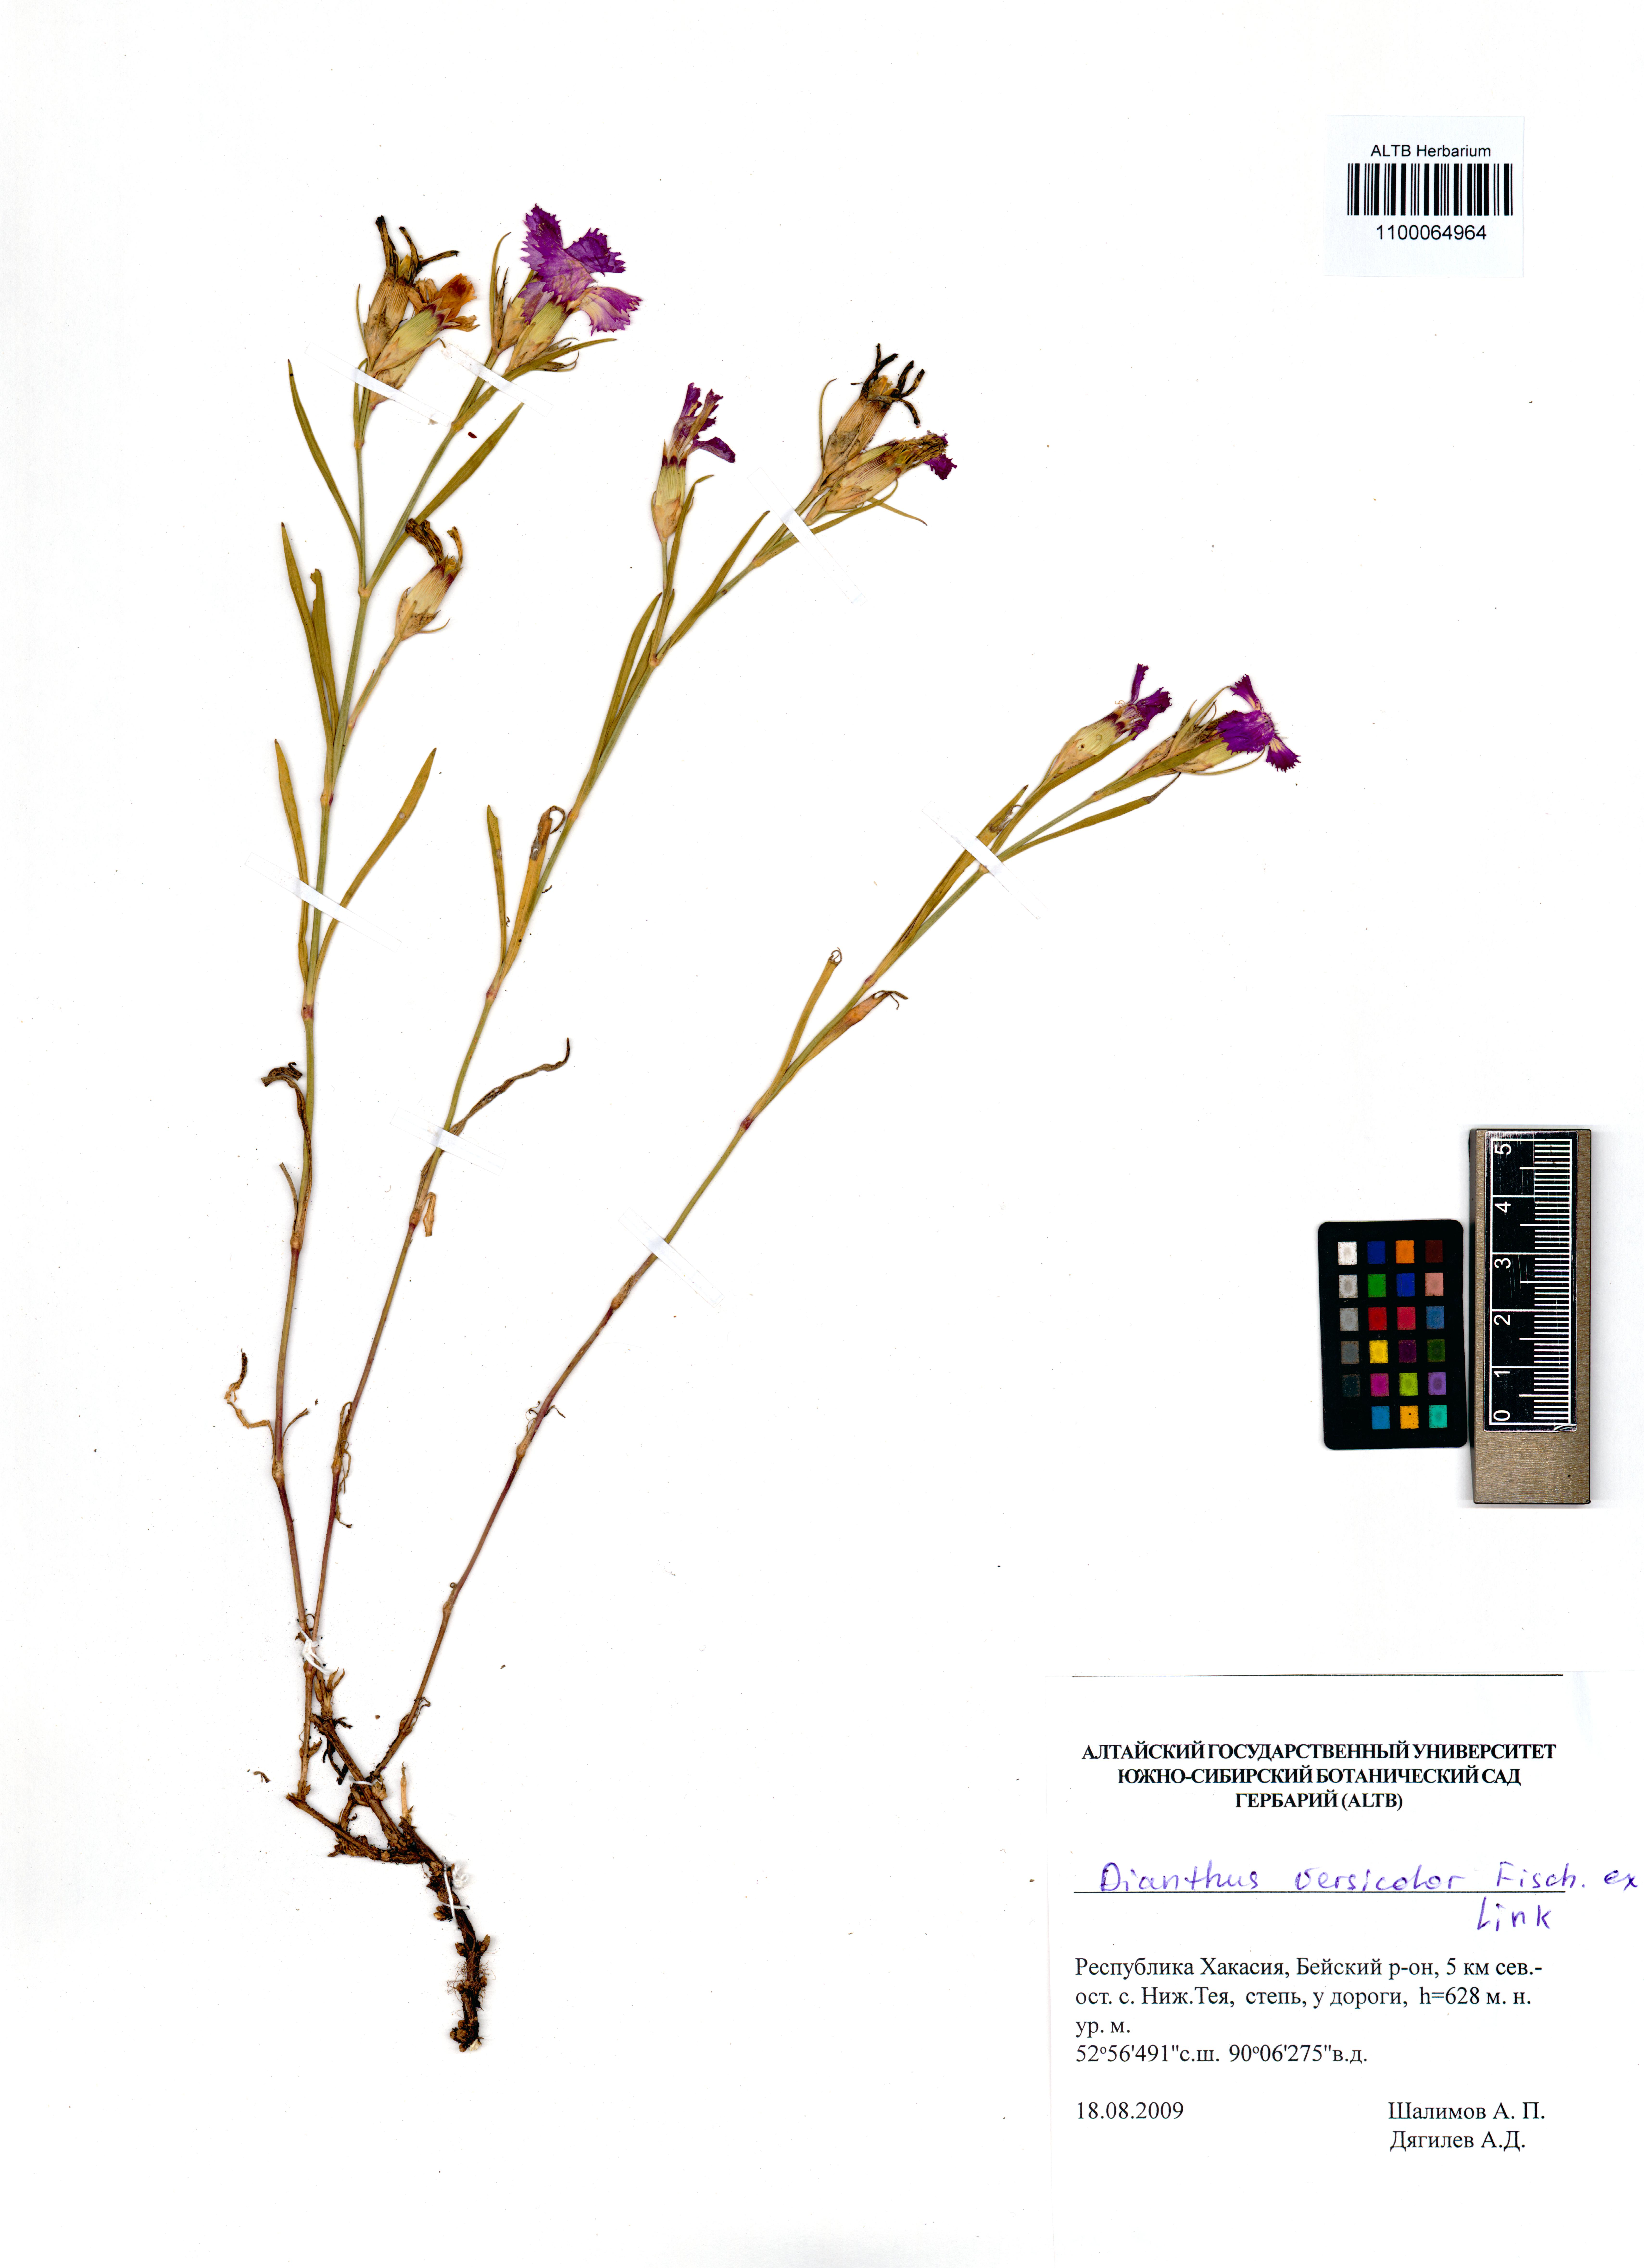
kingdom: Plantae
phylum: Tracheophyta
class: Magnoliopsida
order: Caryophyllales
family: Caryophyllaceae
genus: Dianthus
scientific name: Dianthus chinensis
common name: Rainbow pink
